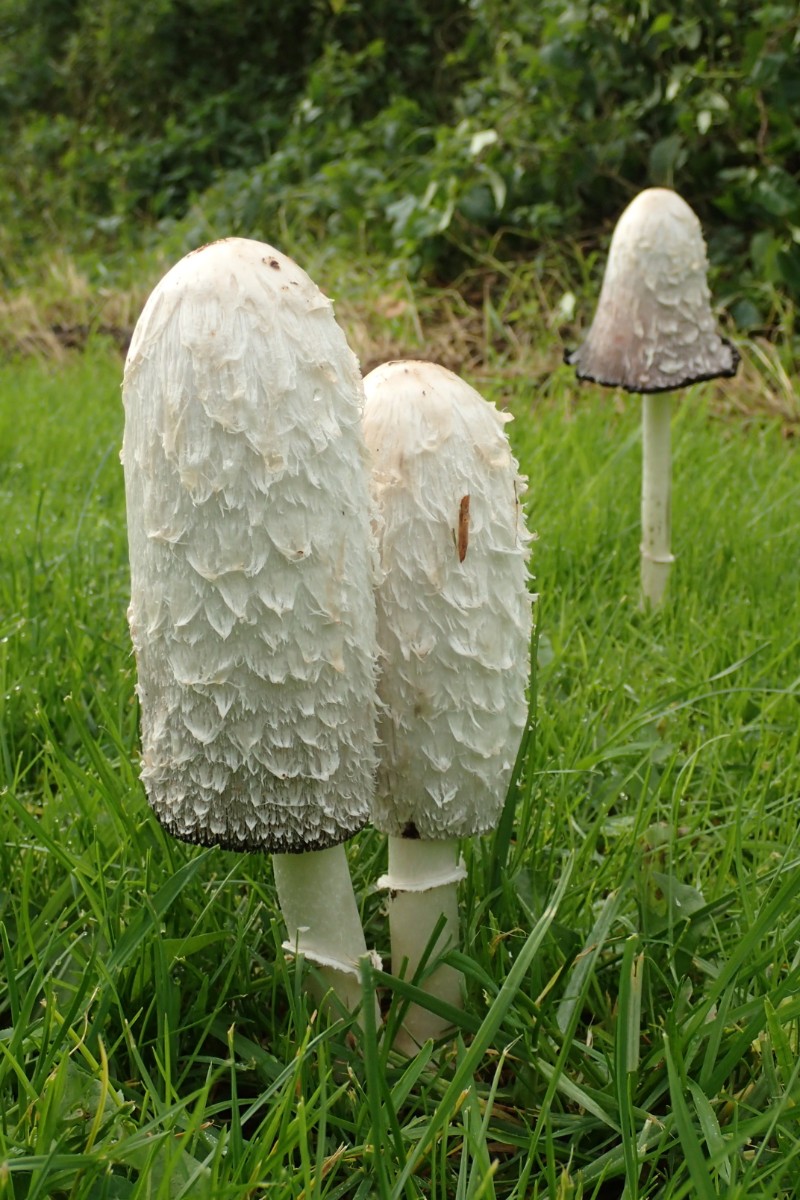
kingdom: Fungi
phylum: Basidiomycota
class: Agaricomycetes
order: Agaricales
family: Agaricaceae
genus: Coprinus
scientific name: Coprinus comatus
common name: stor parykhat
